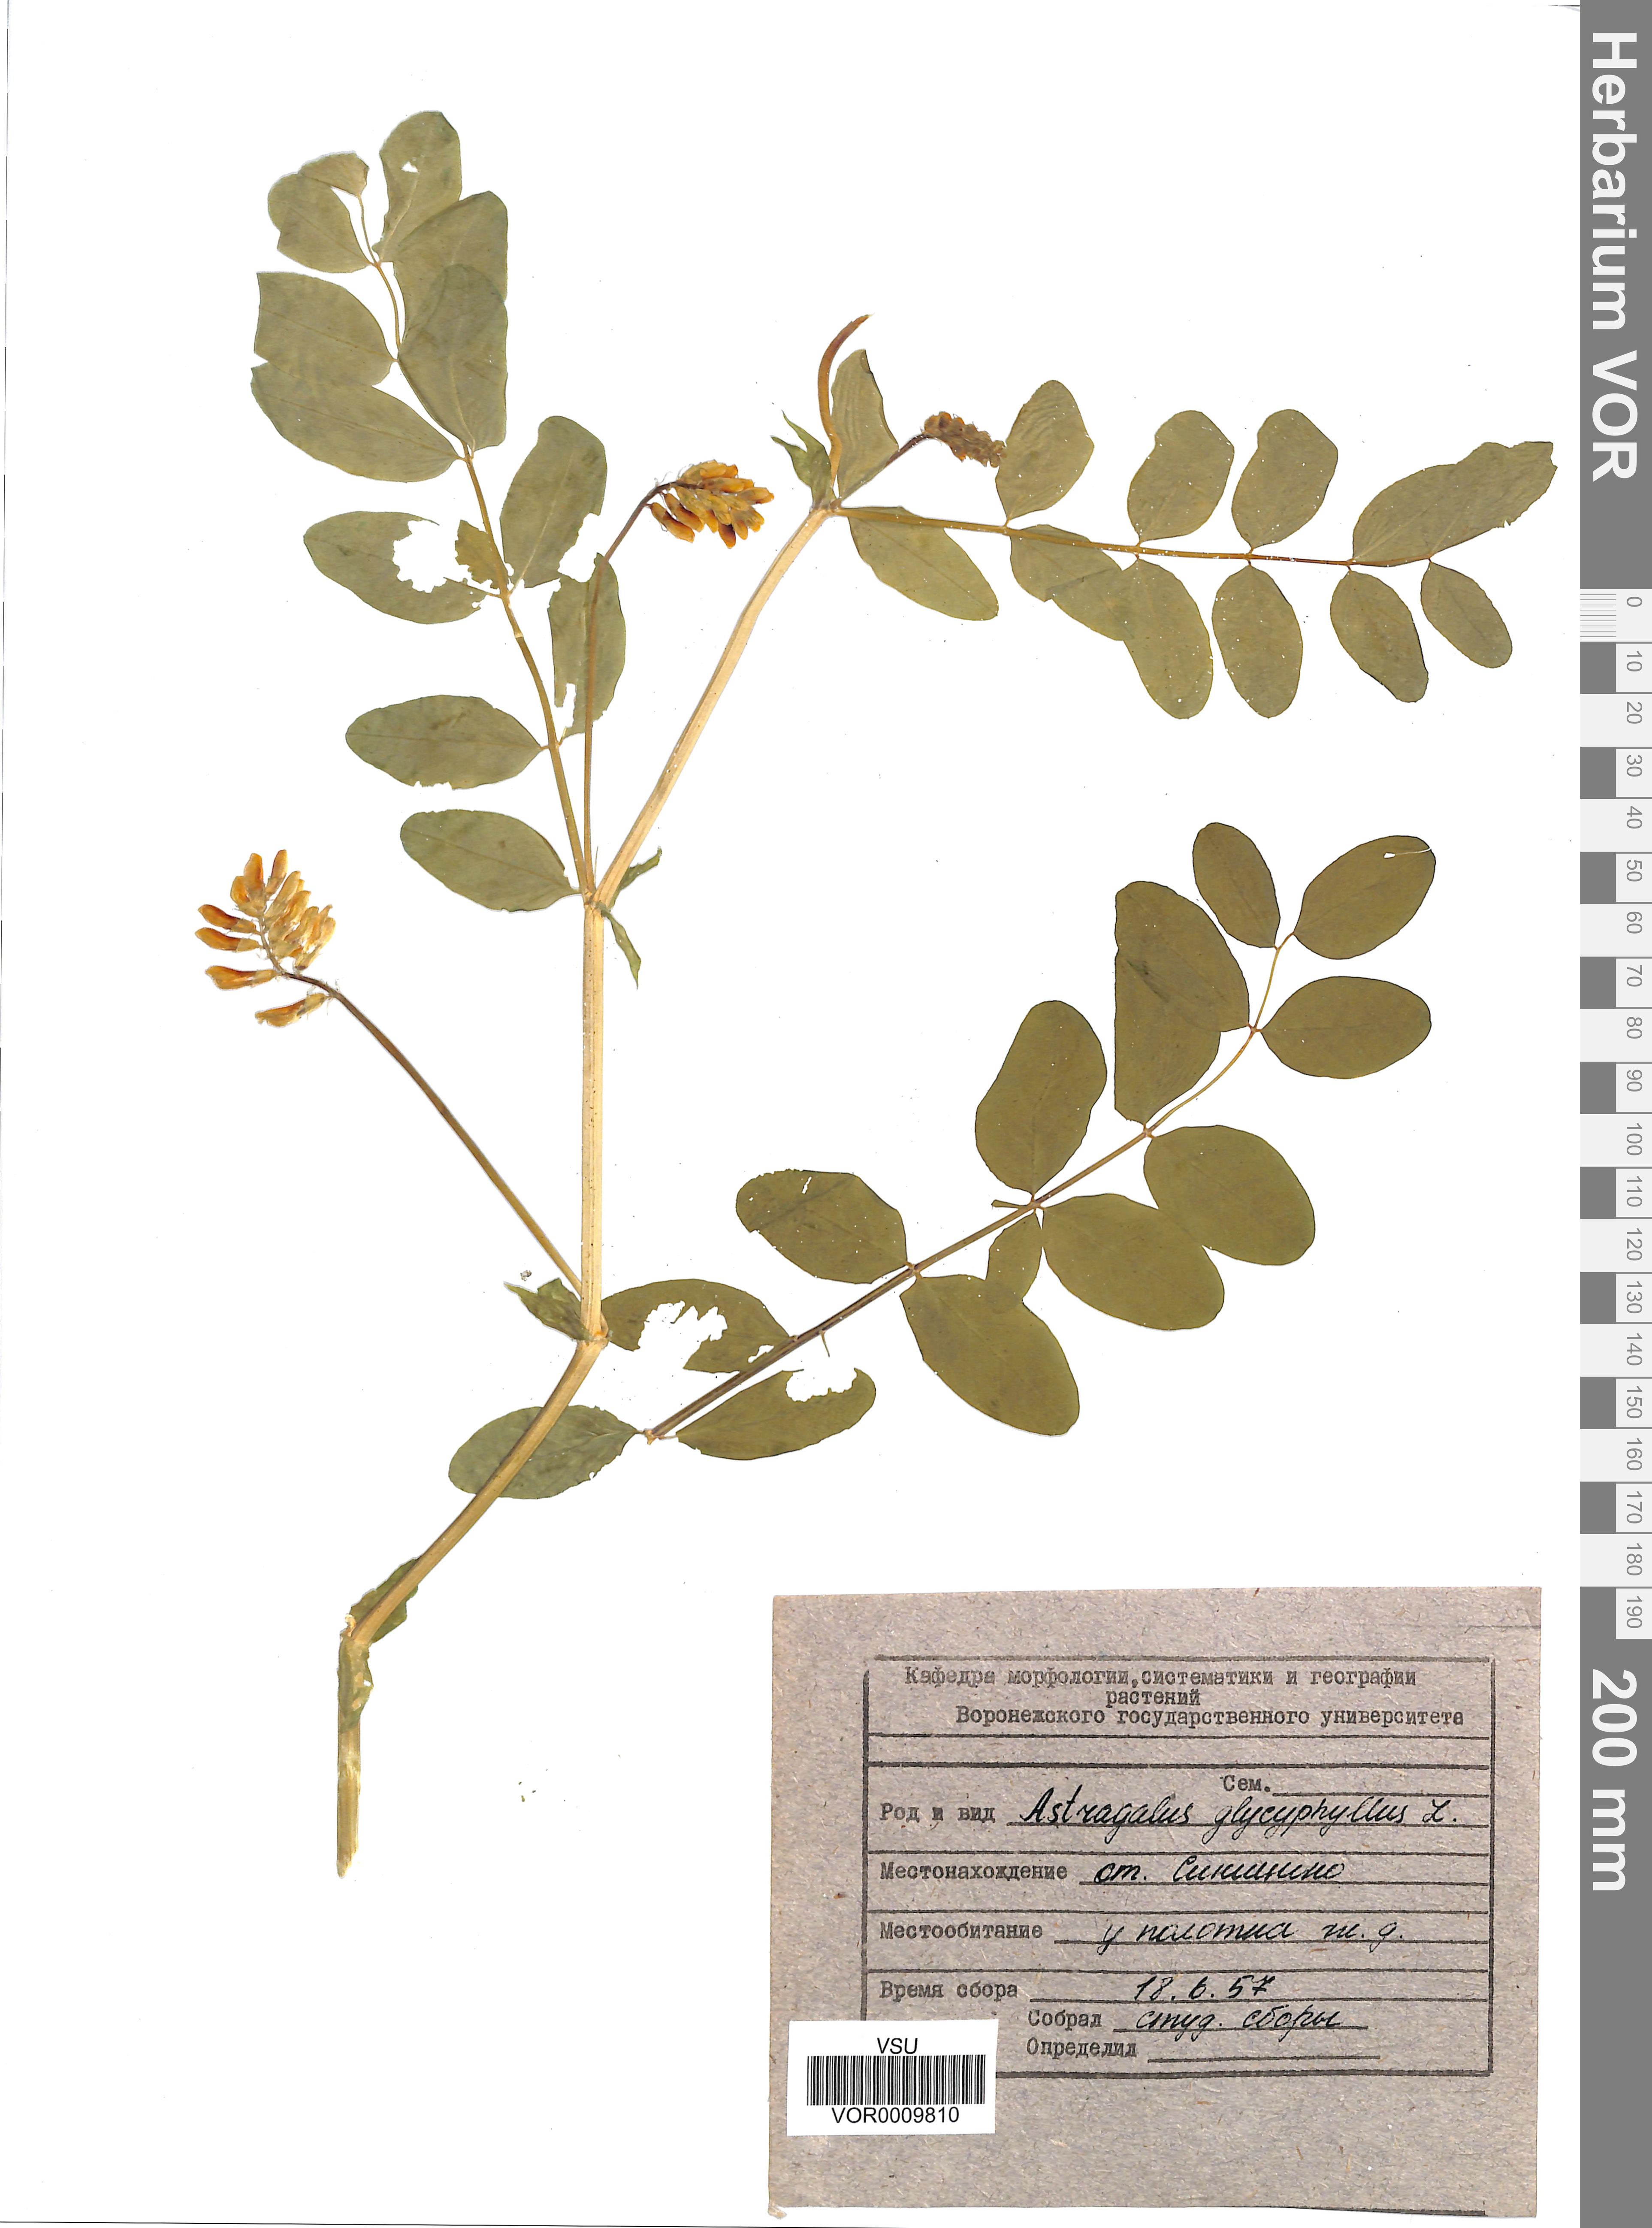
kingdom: Plantae
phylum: Tracheophyta
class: Magnoliopsida
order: Fabales
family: Fabaceae
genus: Astragalus
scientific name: Astragalus glycyphyllos
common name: Wild liquorice
